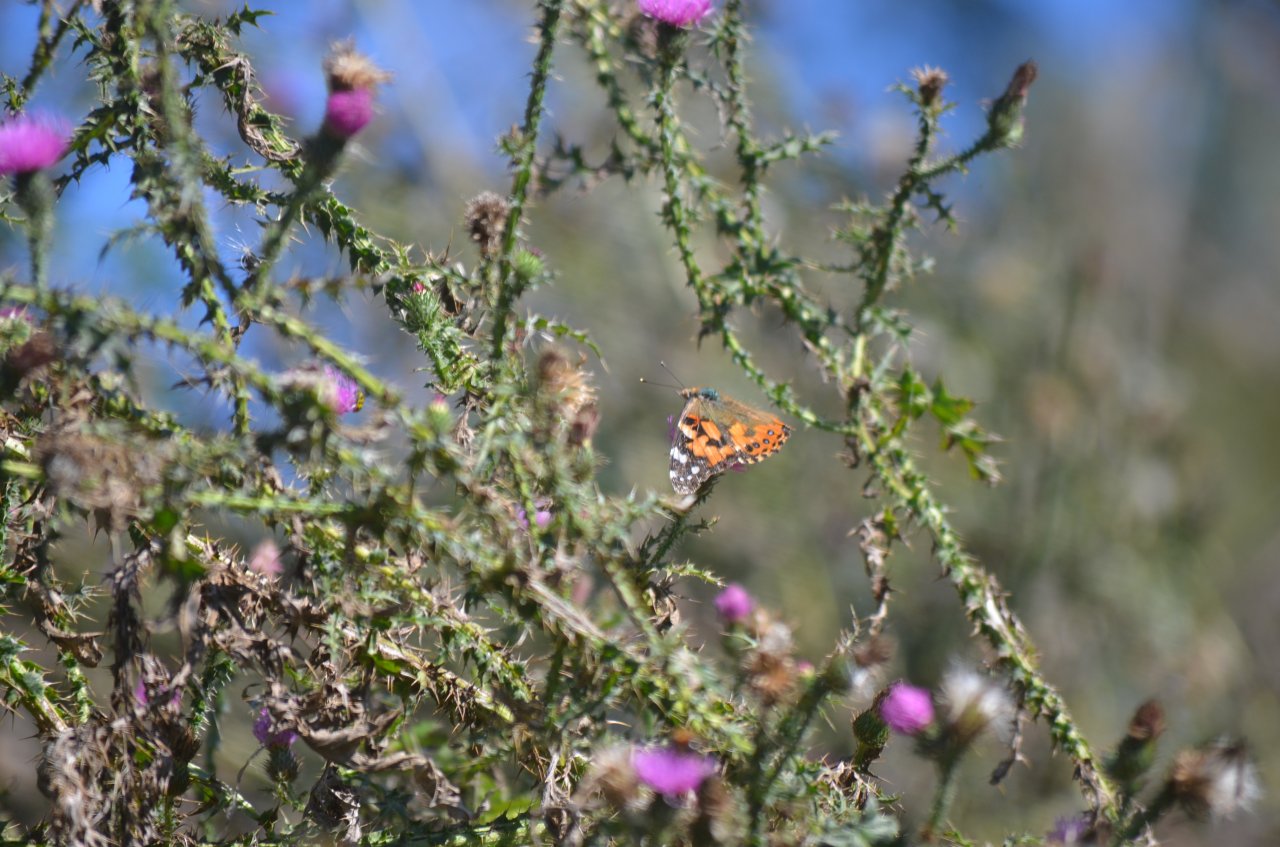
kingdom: Animalia
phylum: Arthropoda
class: Insecta
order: Lepidoptera
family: Nymphalidae
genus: Vanessa
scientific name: Vanessa cardui
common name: Painted Lady
